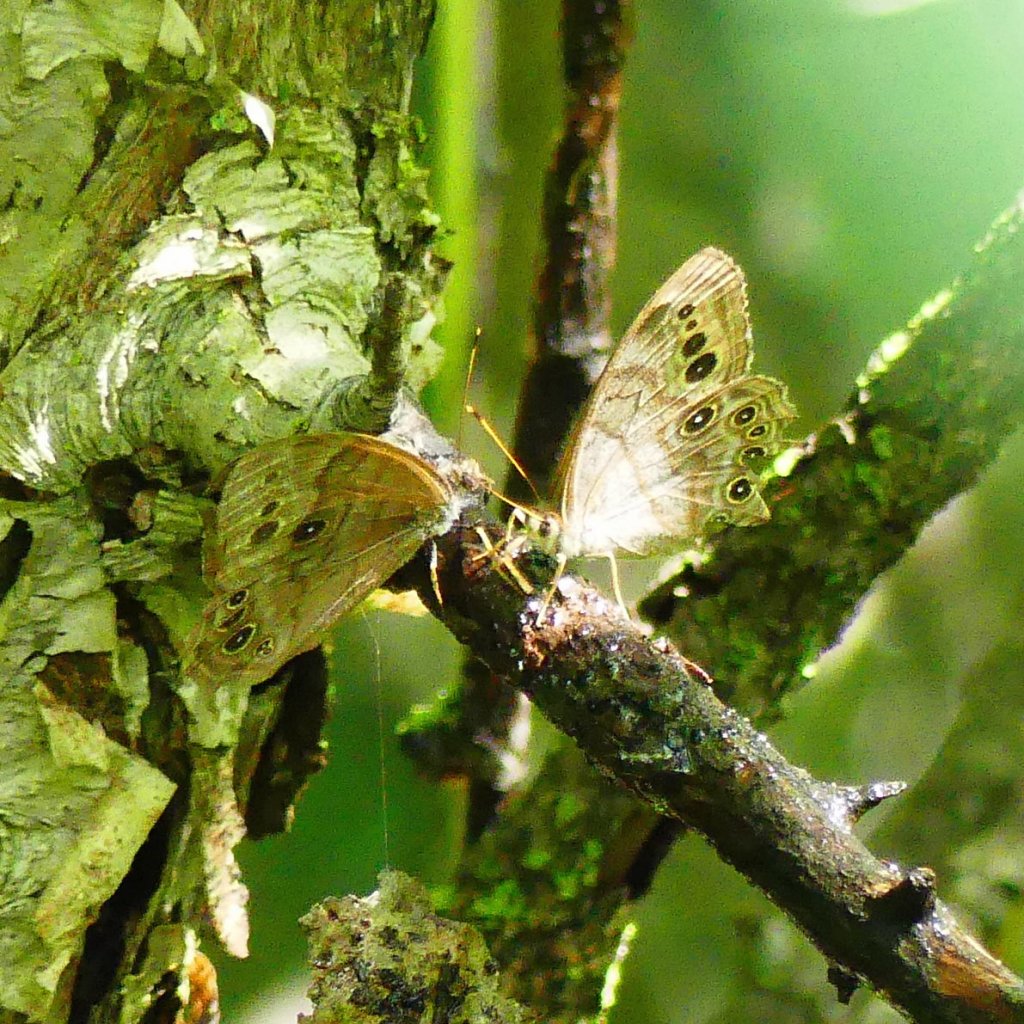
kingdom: Animalia
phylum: Arthropoda
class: Insecta
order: Lepidoptera
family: Nymphalidae
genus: Lethe
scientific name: Lethe anthedon
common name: Northern Pearly-Eye
